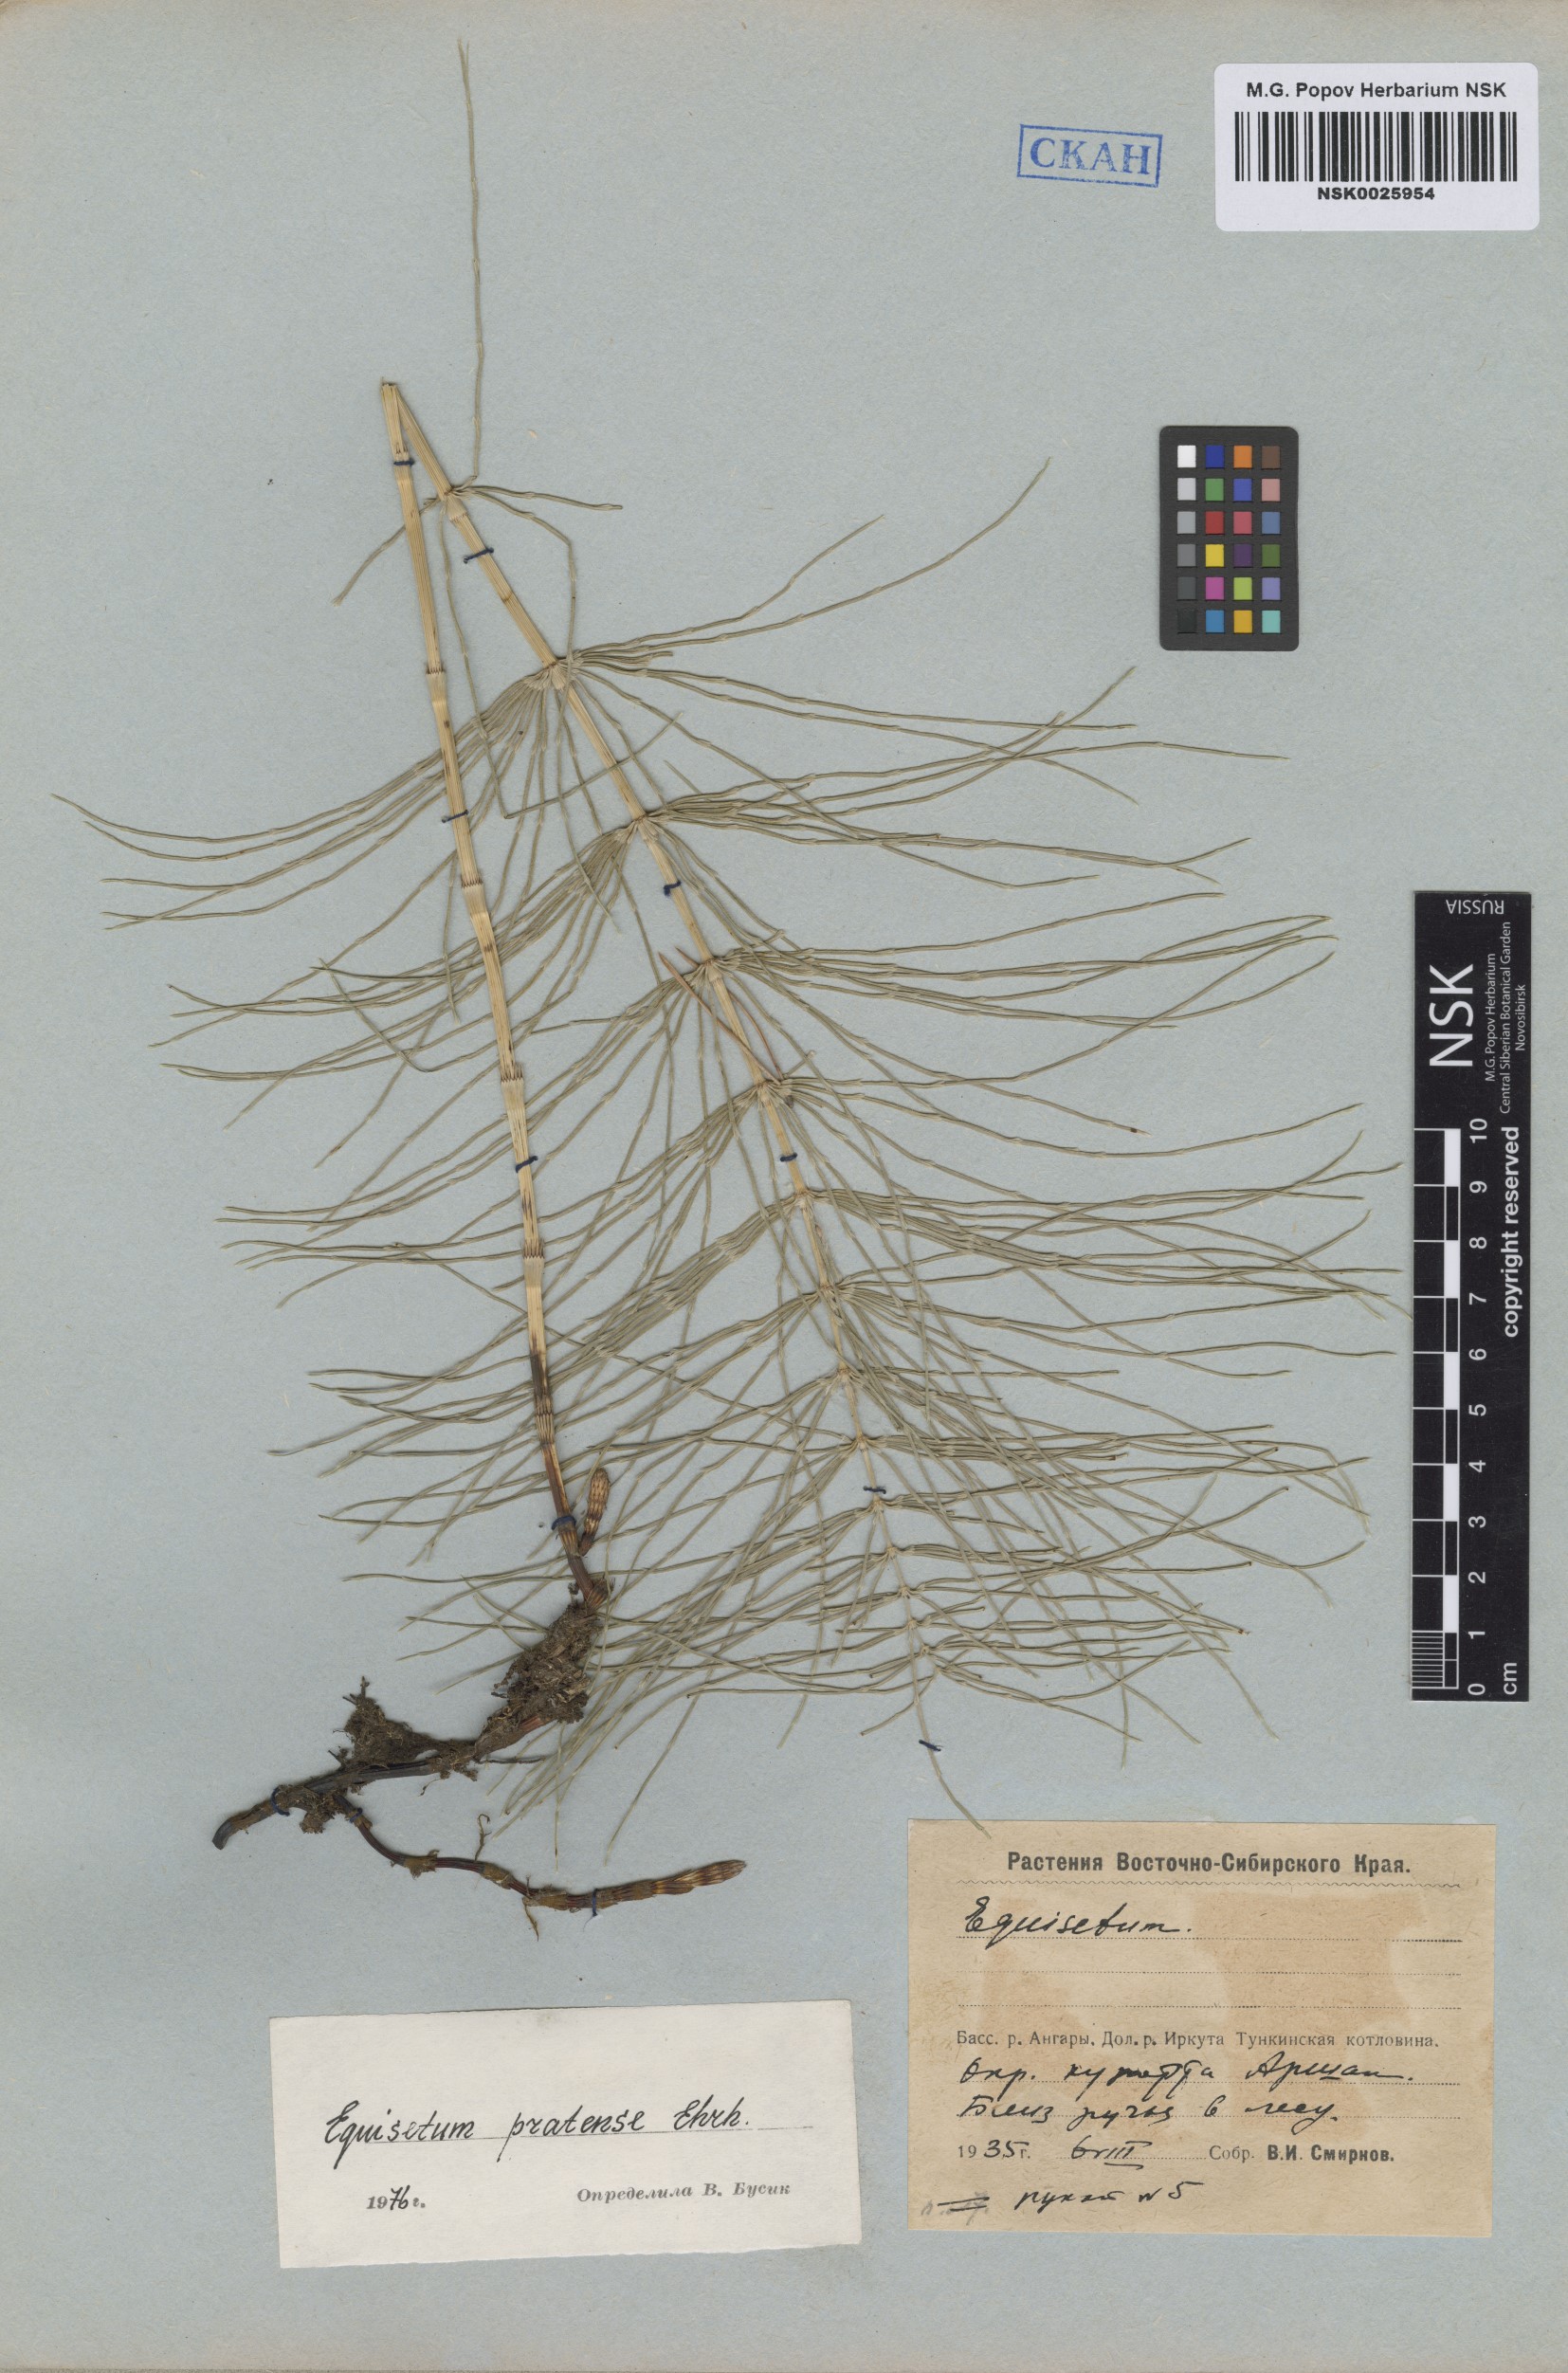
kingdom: Plantae
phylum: Tracheophyta
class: Polypodiopsida
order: Equisetales
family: Equisetaceae
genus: Equisetum
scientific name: Equisetum pratense
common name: Meadow horsetail
